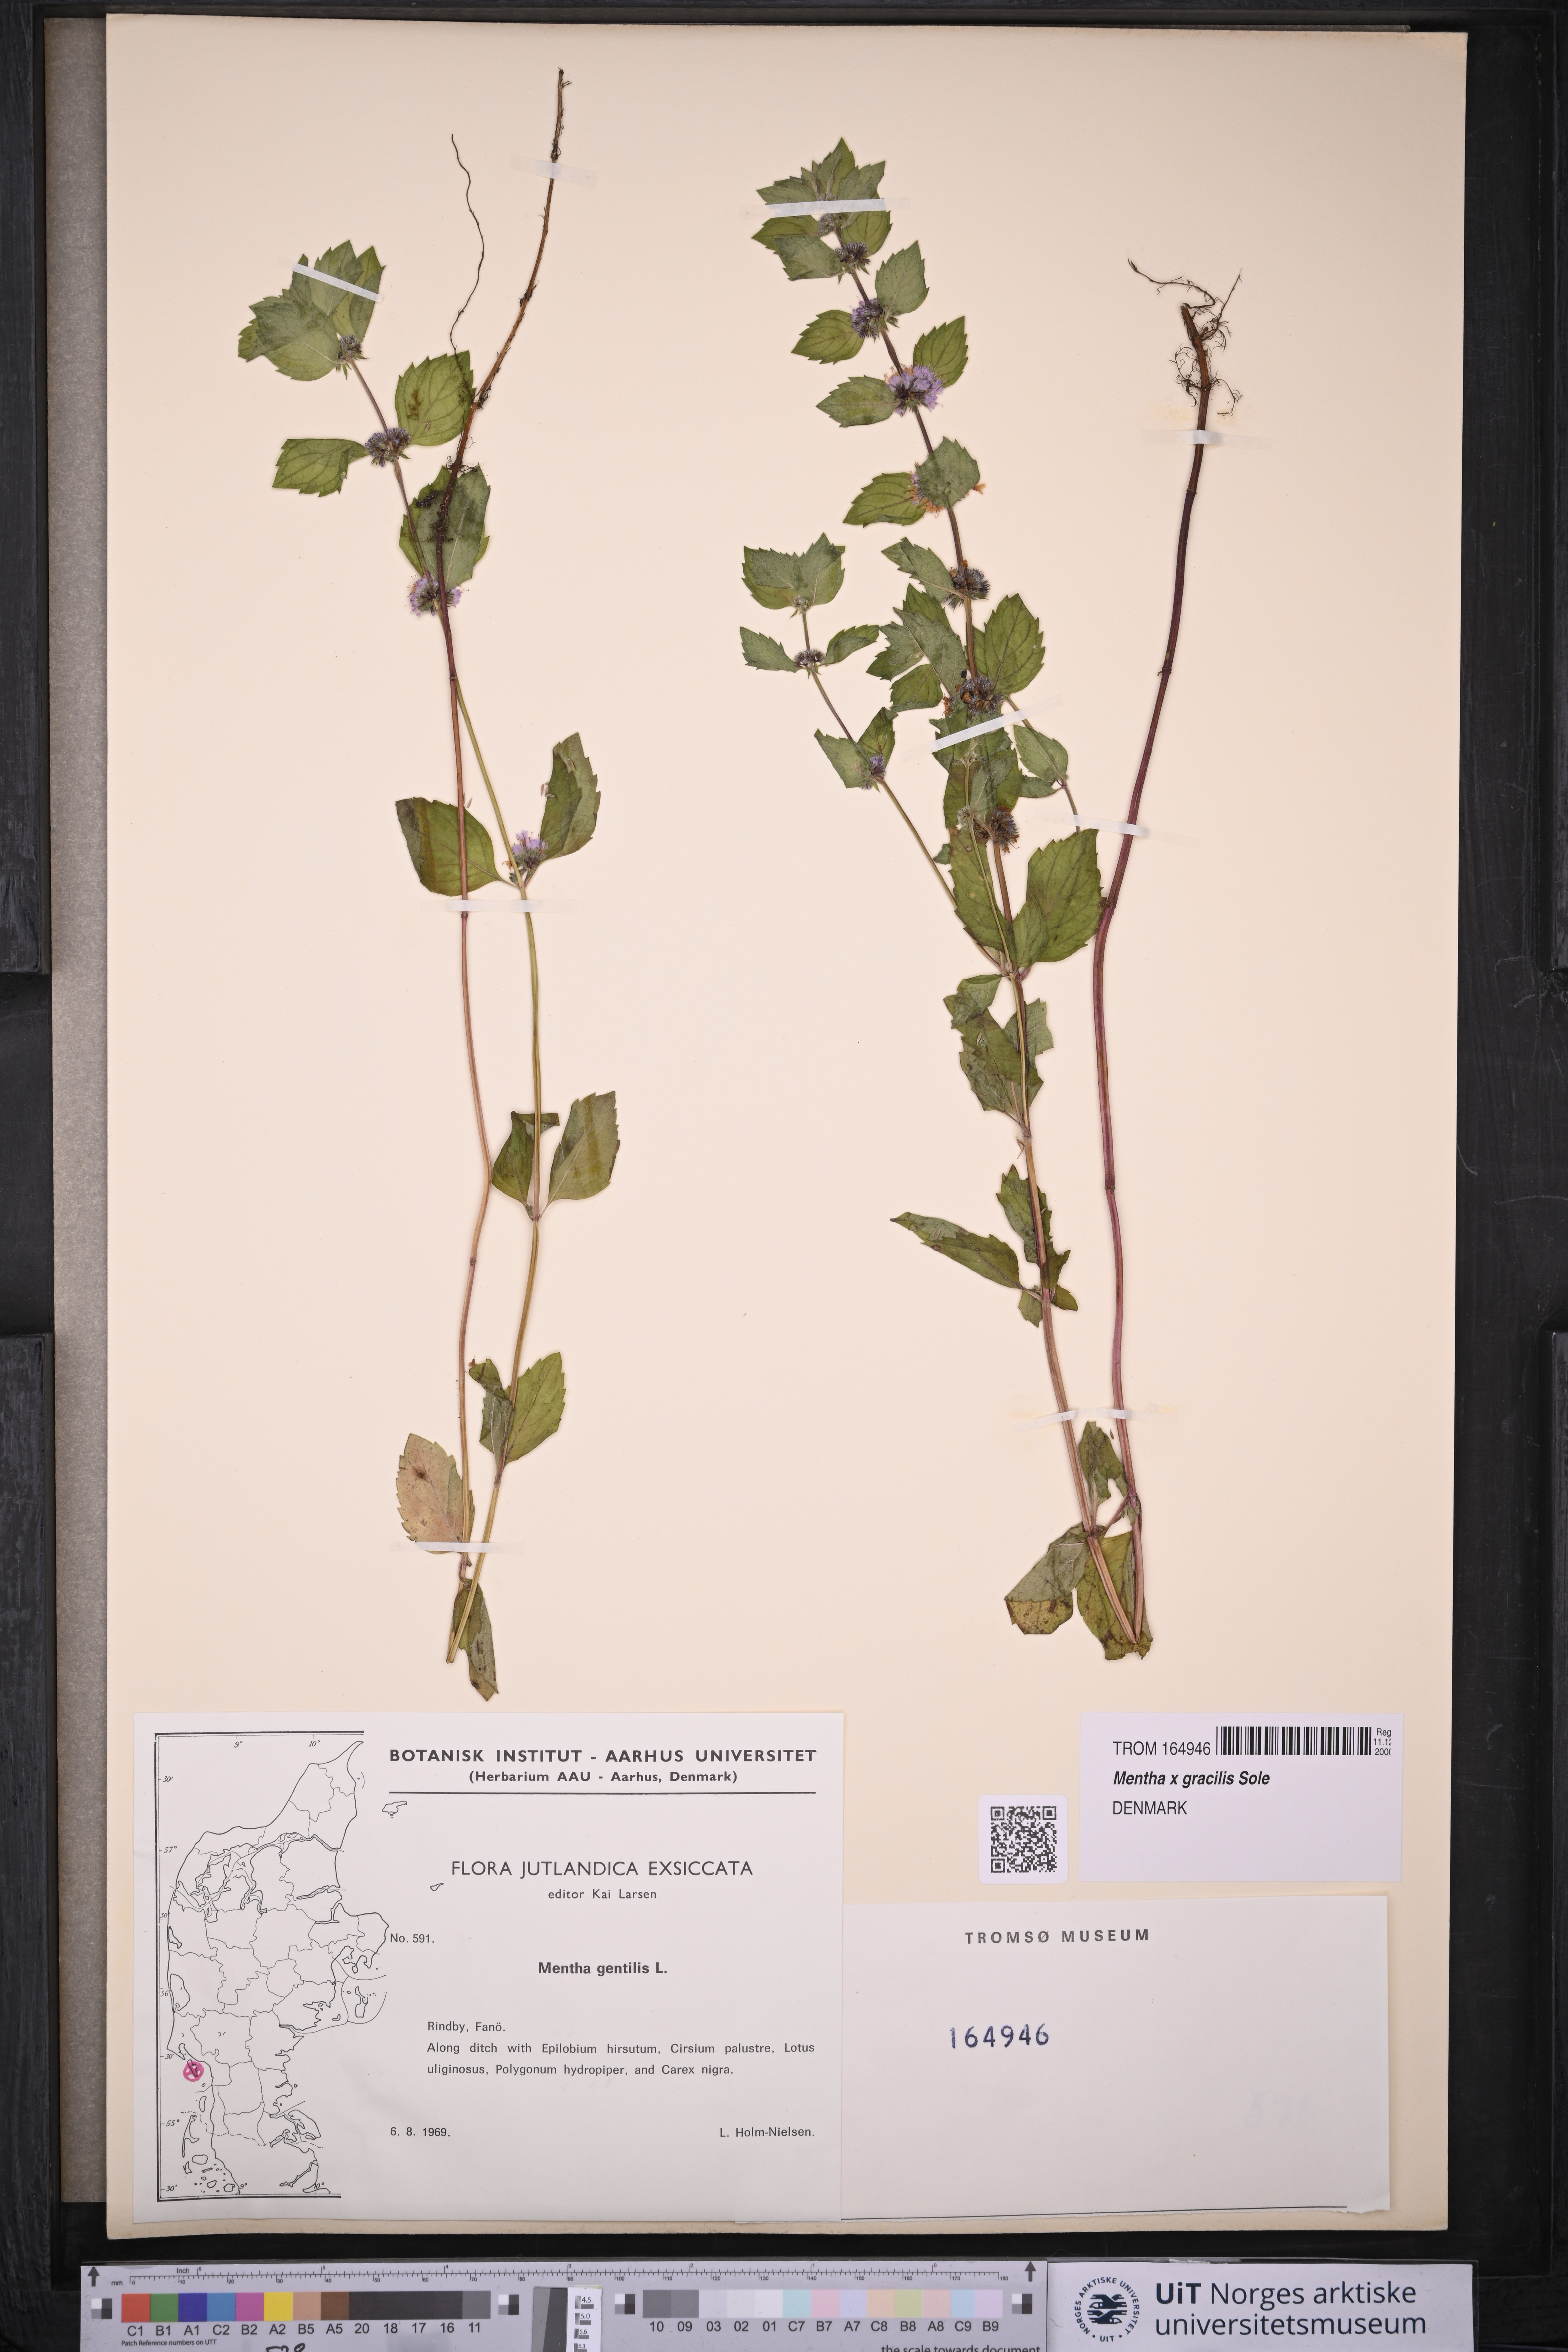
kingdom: Plantae
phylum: Tracheophyta
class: Magnoliopsida
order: Lamiales
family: Lamiaceae
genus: Mentha
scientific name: Mentha arvensis
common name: Corn mint
